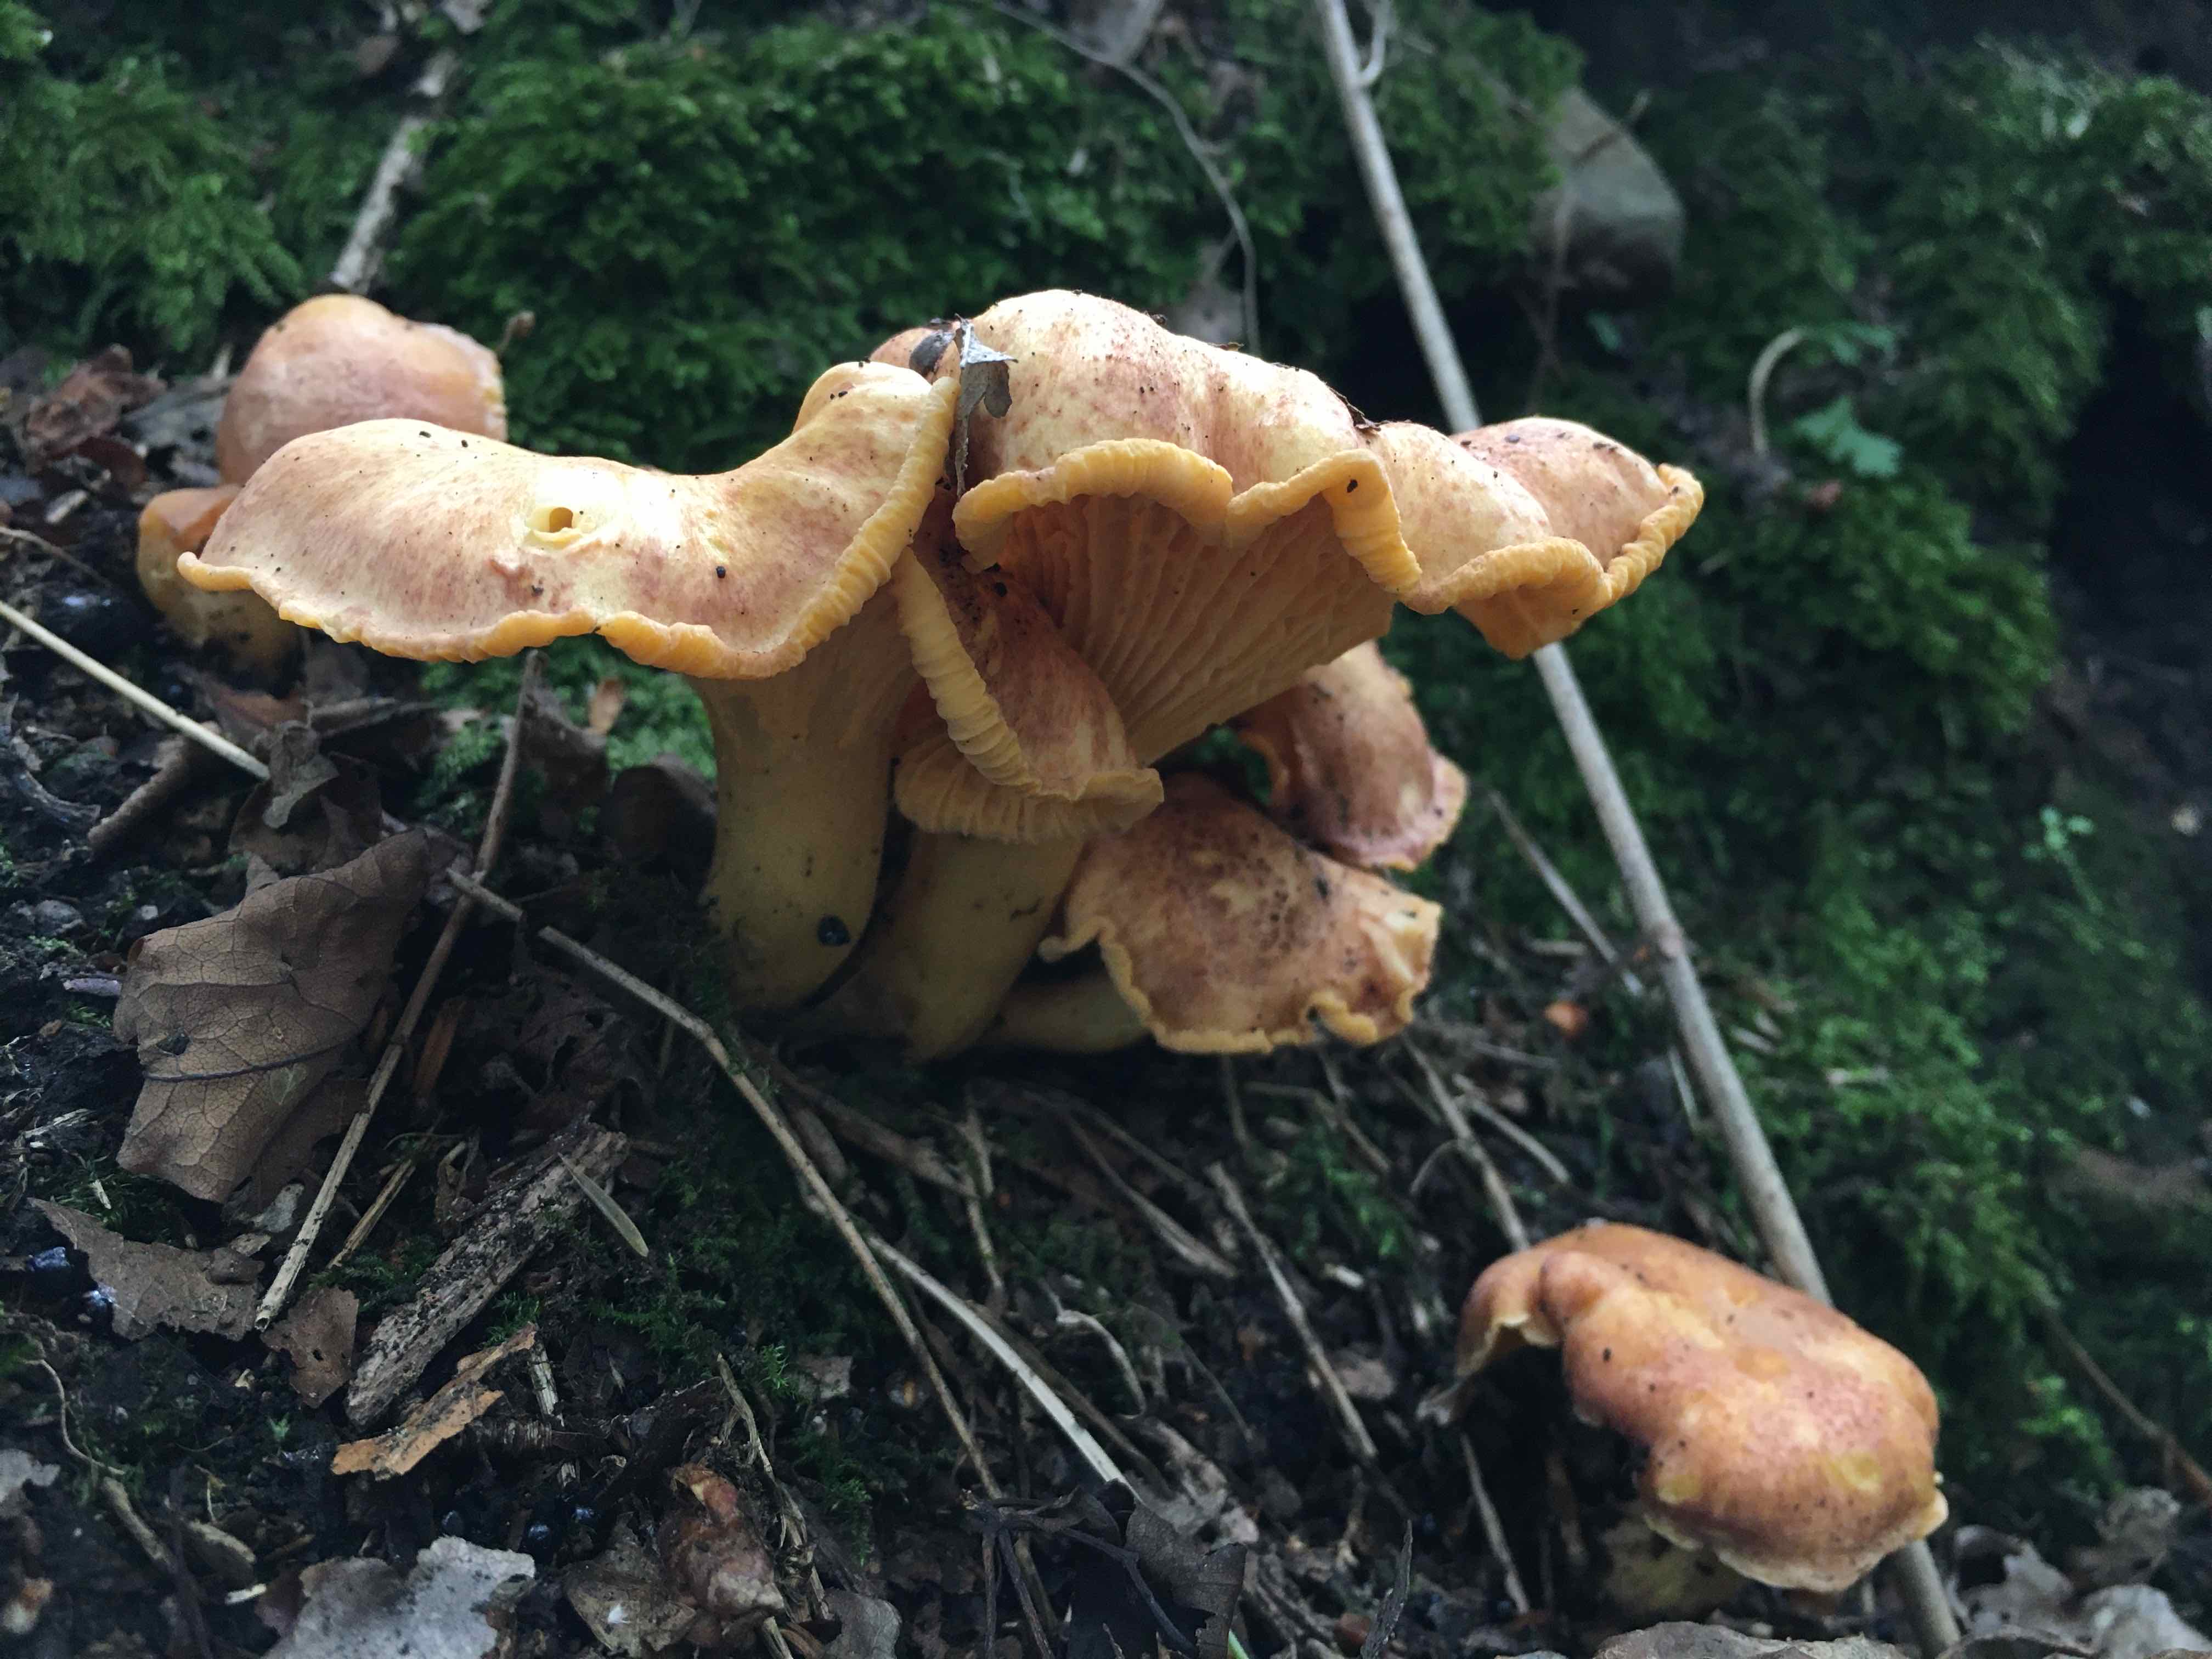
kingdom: Fungi
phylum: Basidiomycota
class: Agaricomycetes
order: Cantharellales
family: Hydnaceae
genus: Cantharellus
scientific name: Cantharellus amethysteus
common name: ametyst-kantarel
